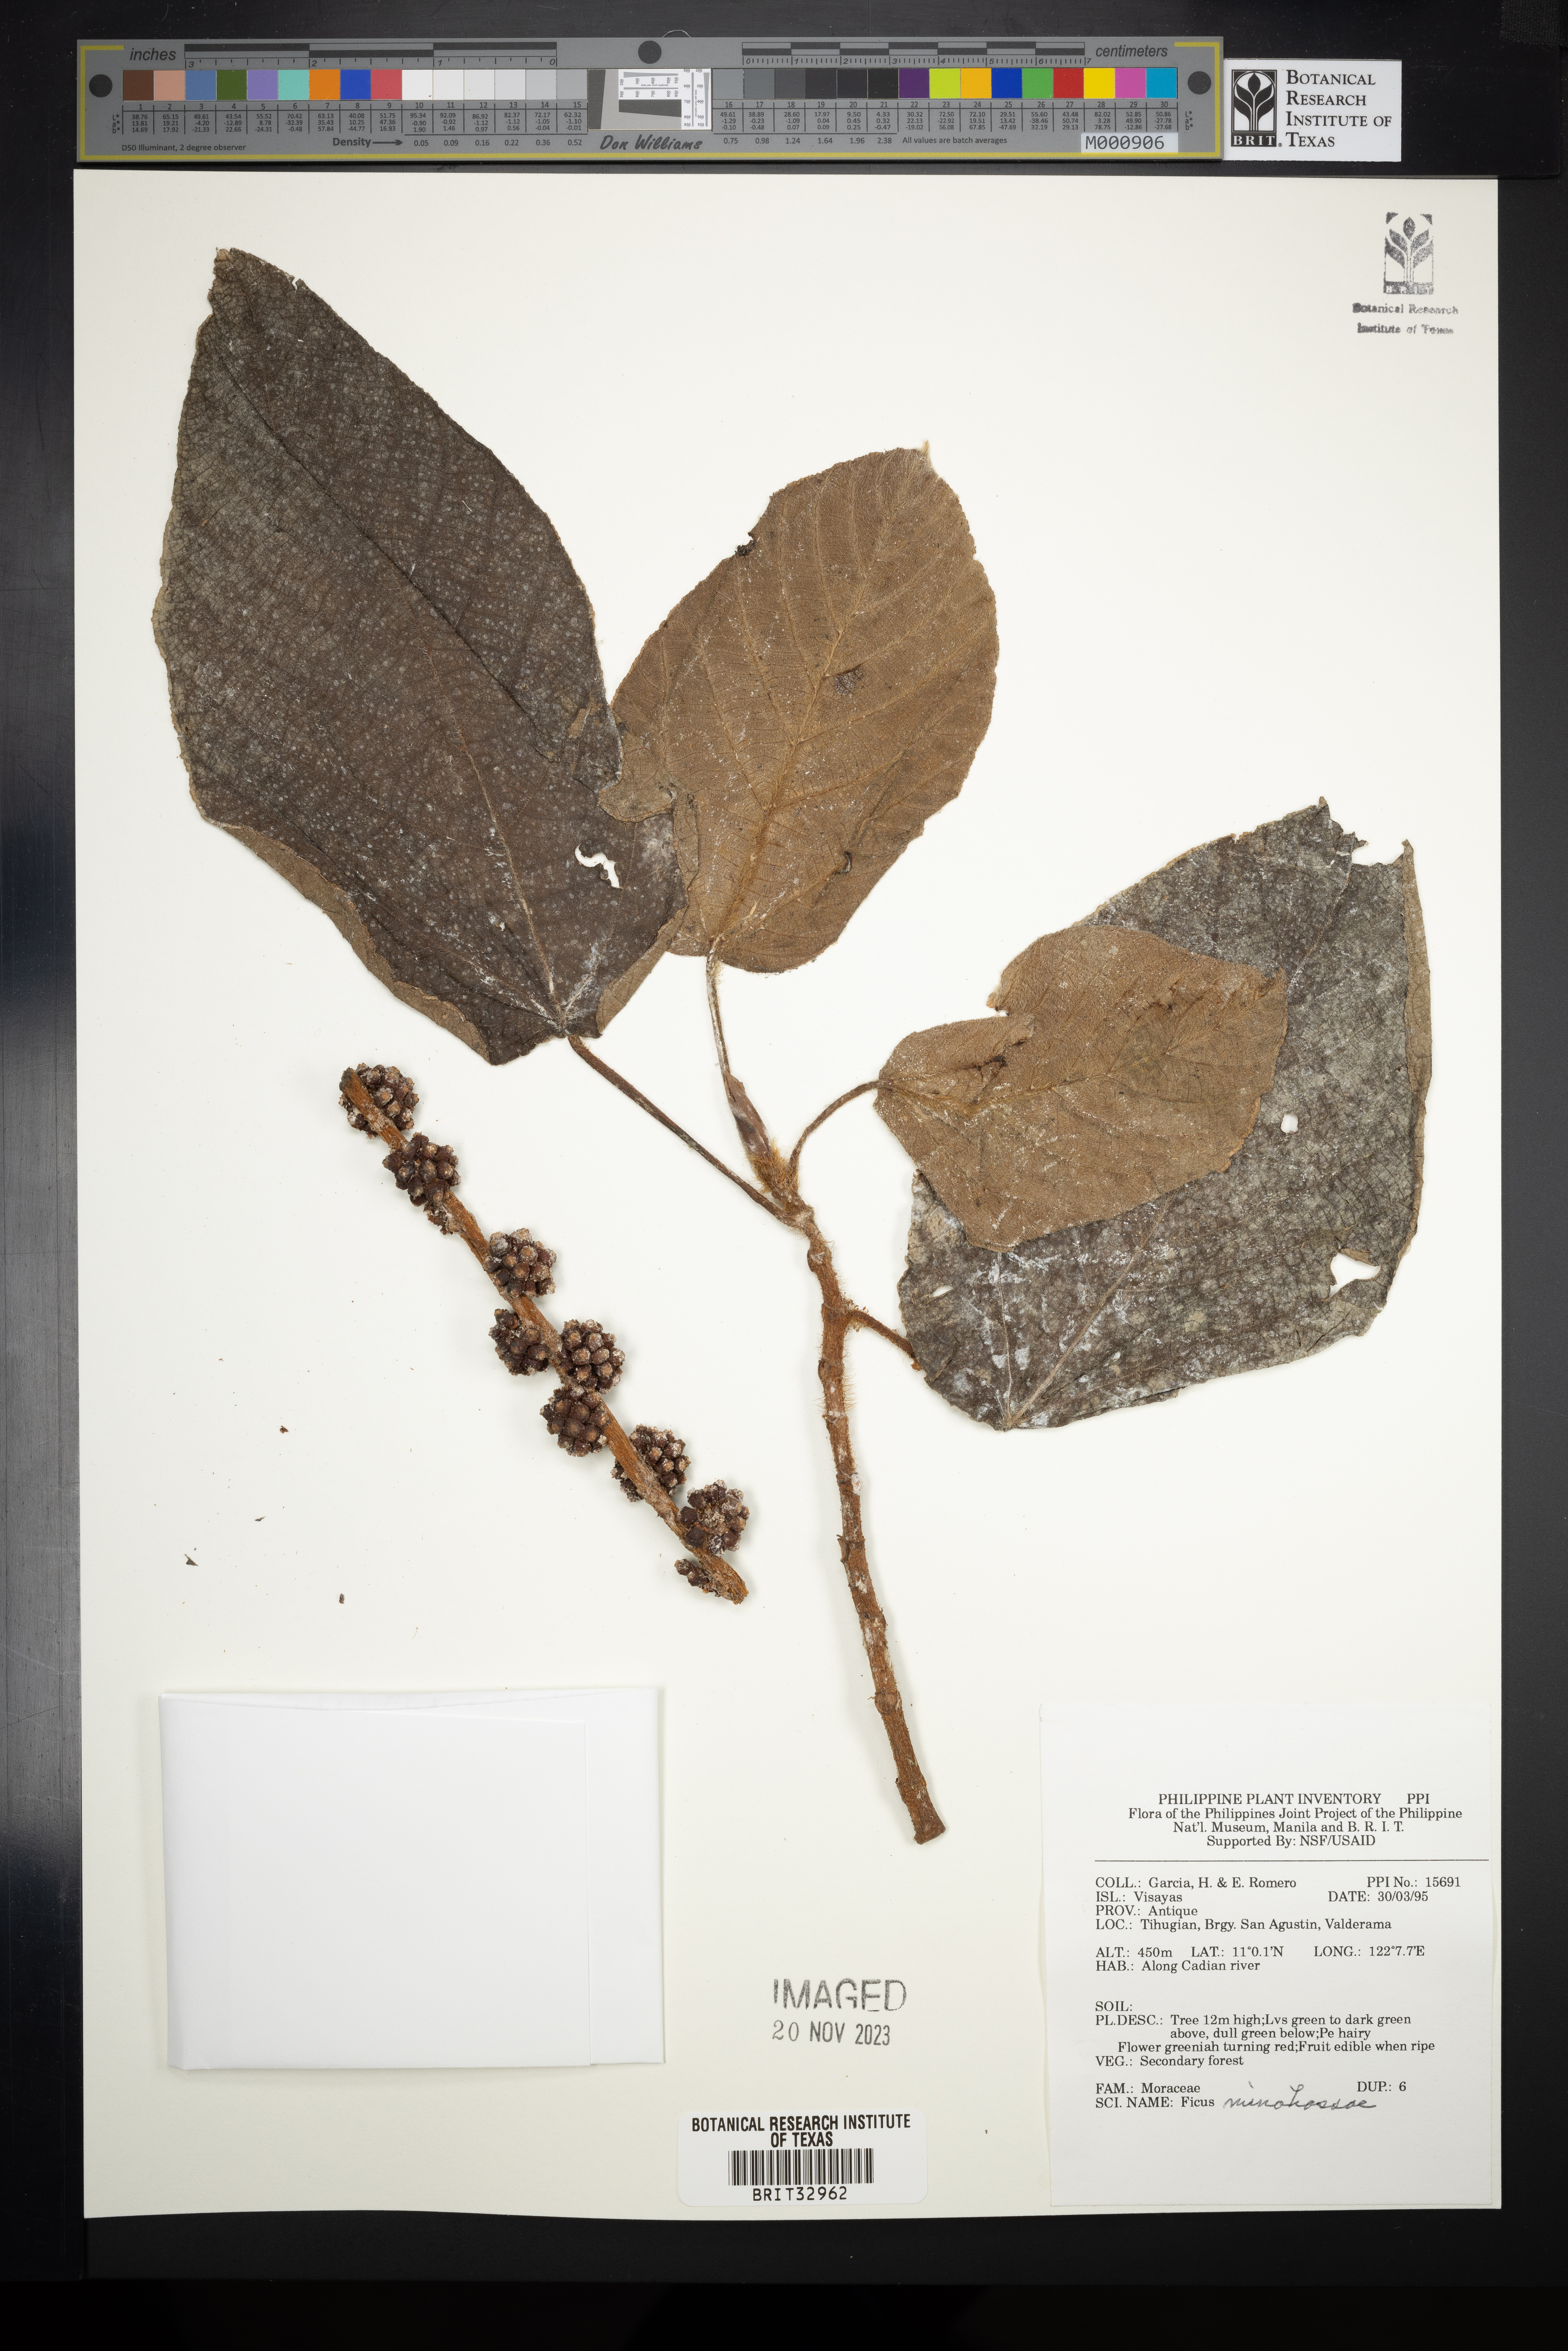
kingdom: Plantae
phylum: Tracheophyta
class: Magnoliopsida
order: Rosales
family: Moraceae
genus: Ficus
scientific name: Ficus minahassae
